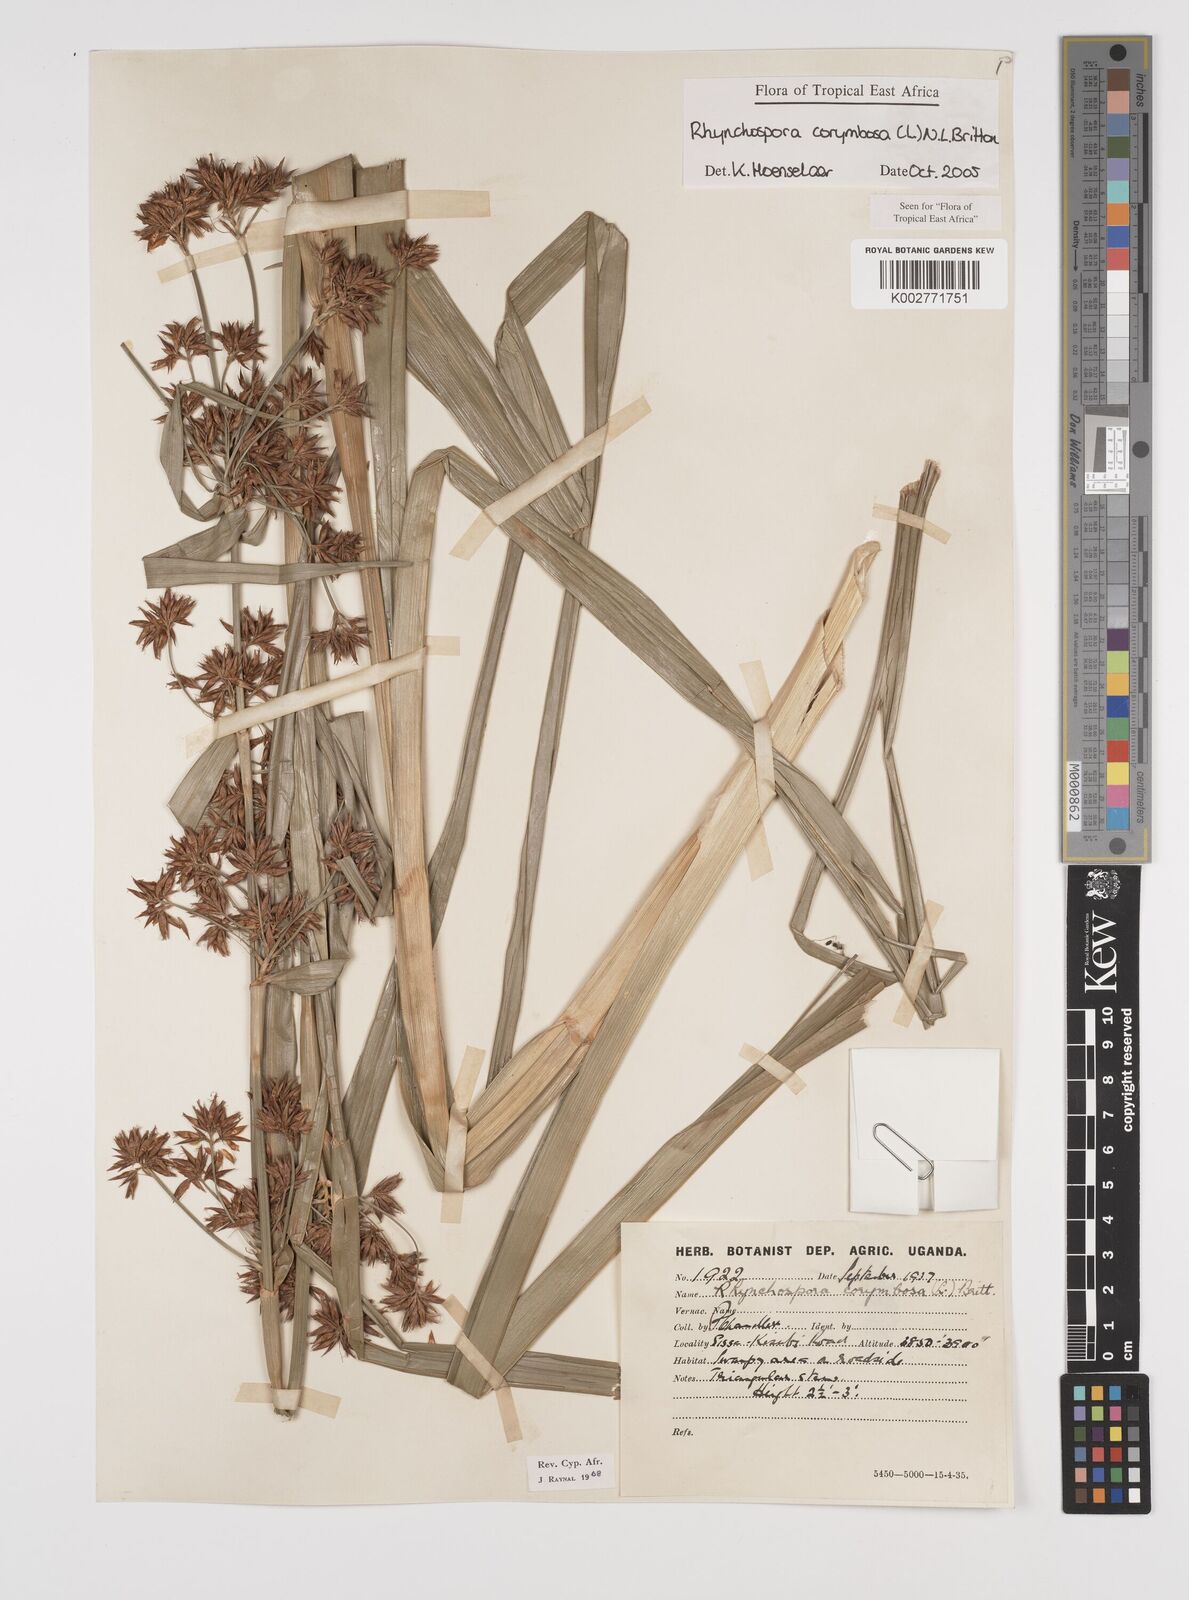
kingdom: Plantae
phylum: Tracheophyta
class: Liliopsida
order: Poales
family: Cyperaceae
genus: Rhynchospora
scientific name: Rhynchospora corymbosa
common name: Golden beak sedge
